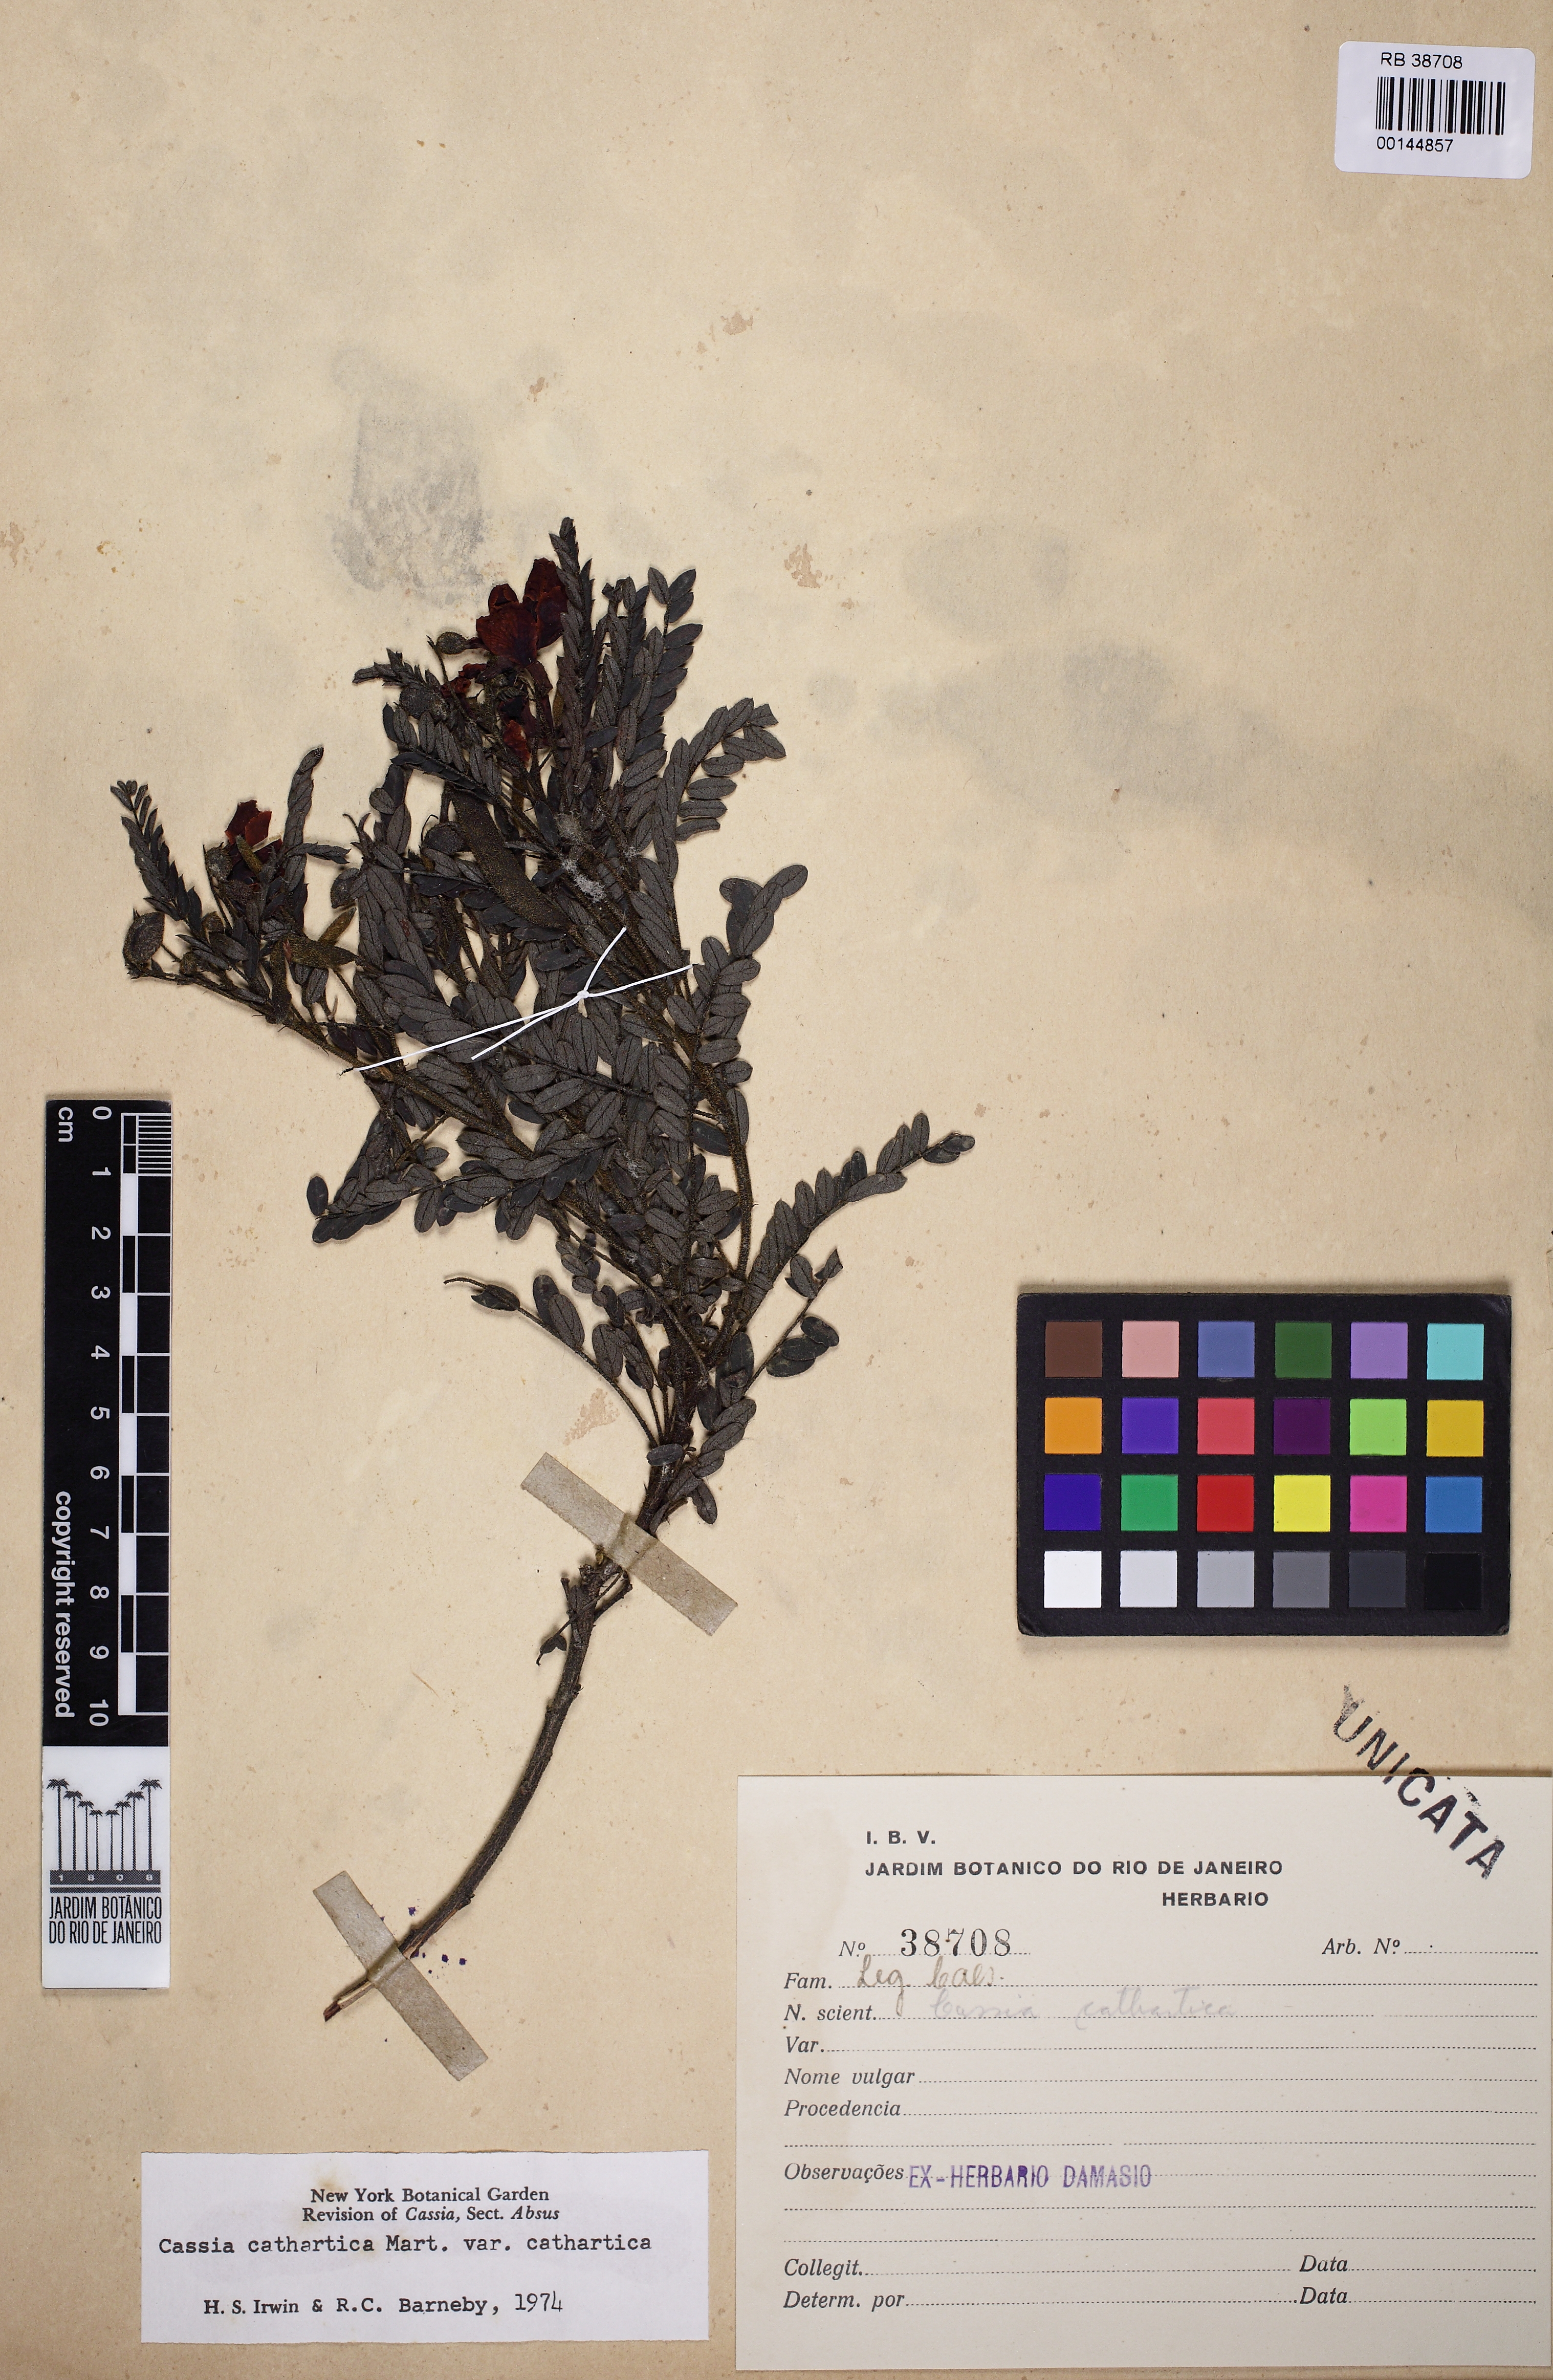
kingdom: Plantae
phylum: Tracheophyta
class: Magnoliopsida
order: Fabales
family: Fabaceae
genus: Chamaecrista
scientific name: Chamaecrista cathartica
